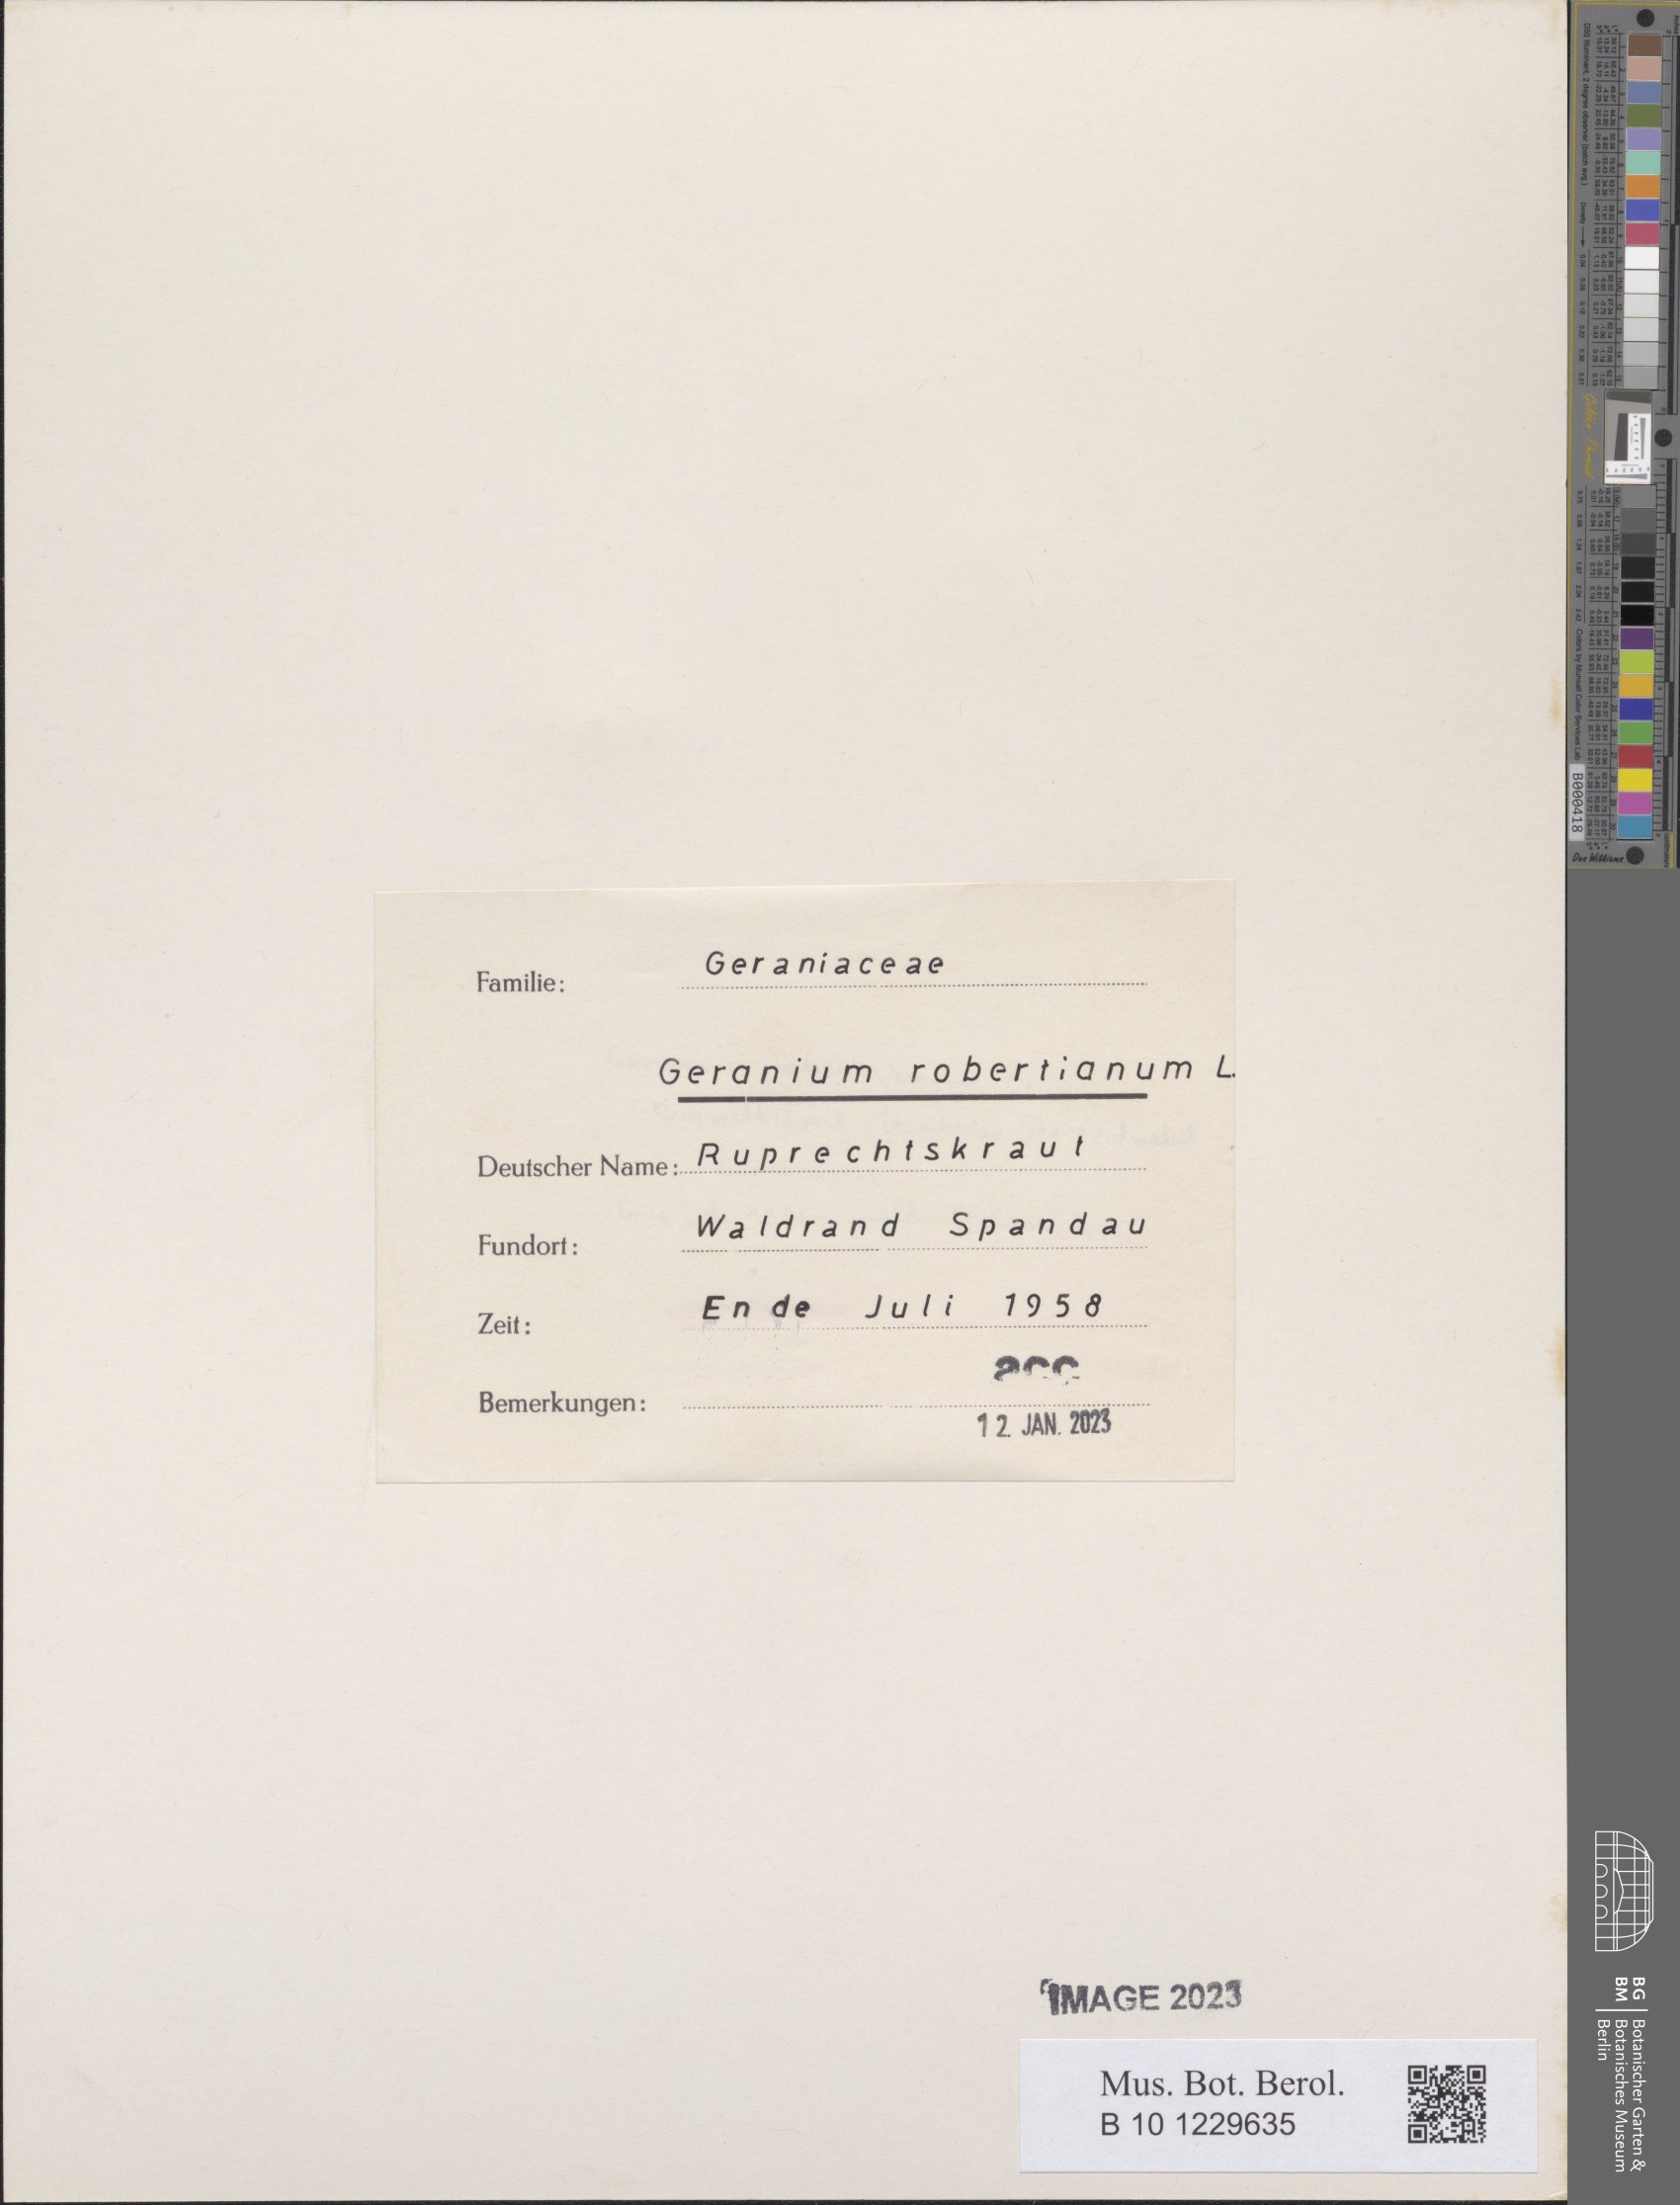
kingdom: Plantae
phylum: Tracheophyta
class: Magnoliopsida
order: Geraniales
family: Geraniaceae
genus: Geranium
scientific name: Geranium robertianum
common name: Herb-robert
